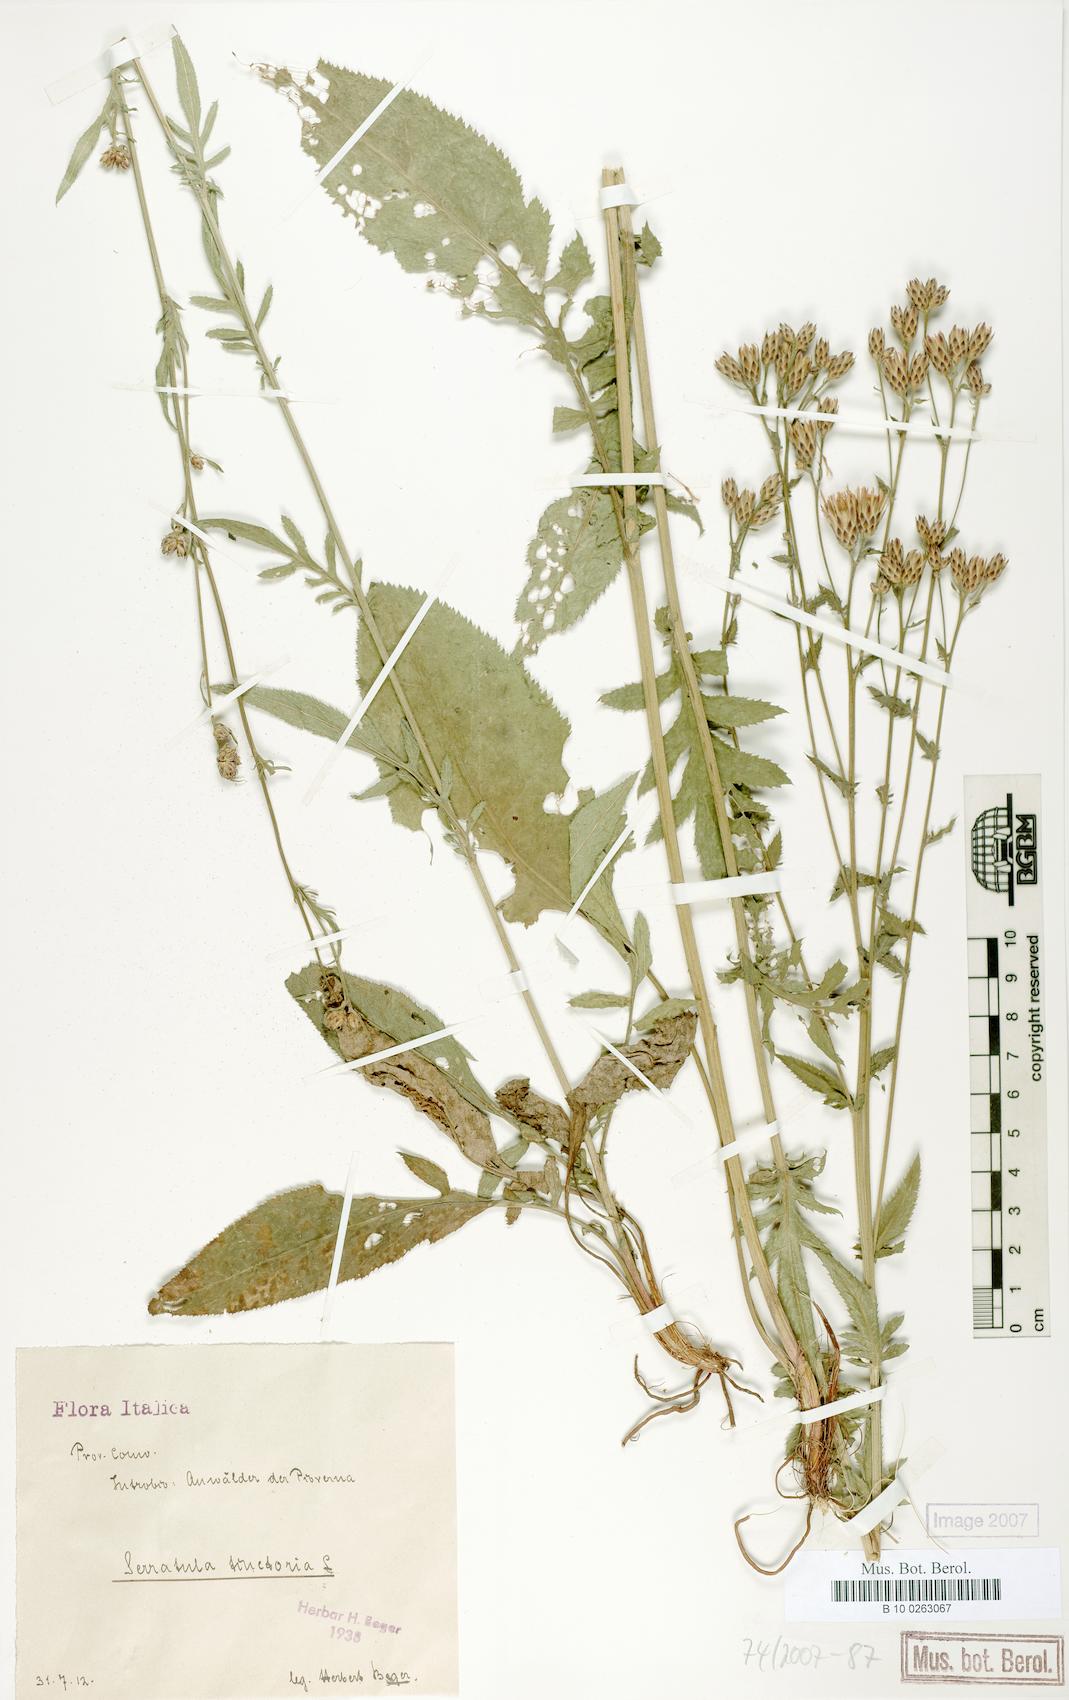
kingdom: Plantae
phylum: Tracheophyta
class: Magnoliopsida
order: Asterales
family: Asteraceae
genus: Serratula
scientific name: Serratula tinctoria
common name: Saw-wort
